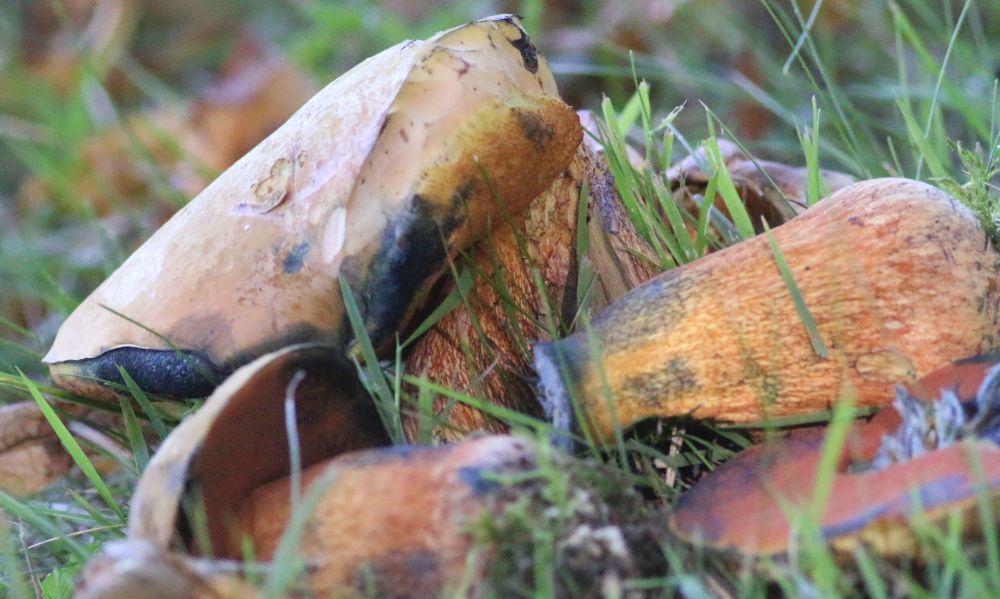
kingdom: Fungi
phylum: Basidiomycota
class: Agaricomycetes
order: Boletales
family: Boletaceae
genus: Suillellus
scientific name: Suillellus luridus
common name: netstokket indigorørhat
